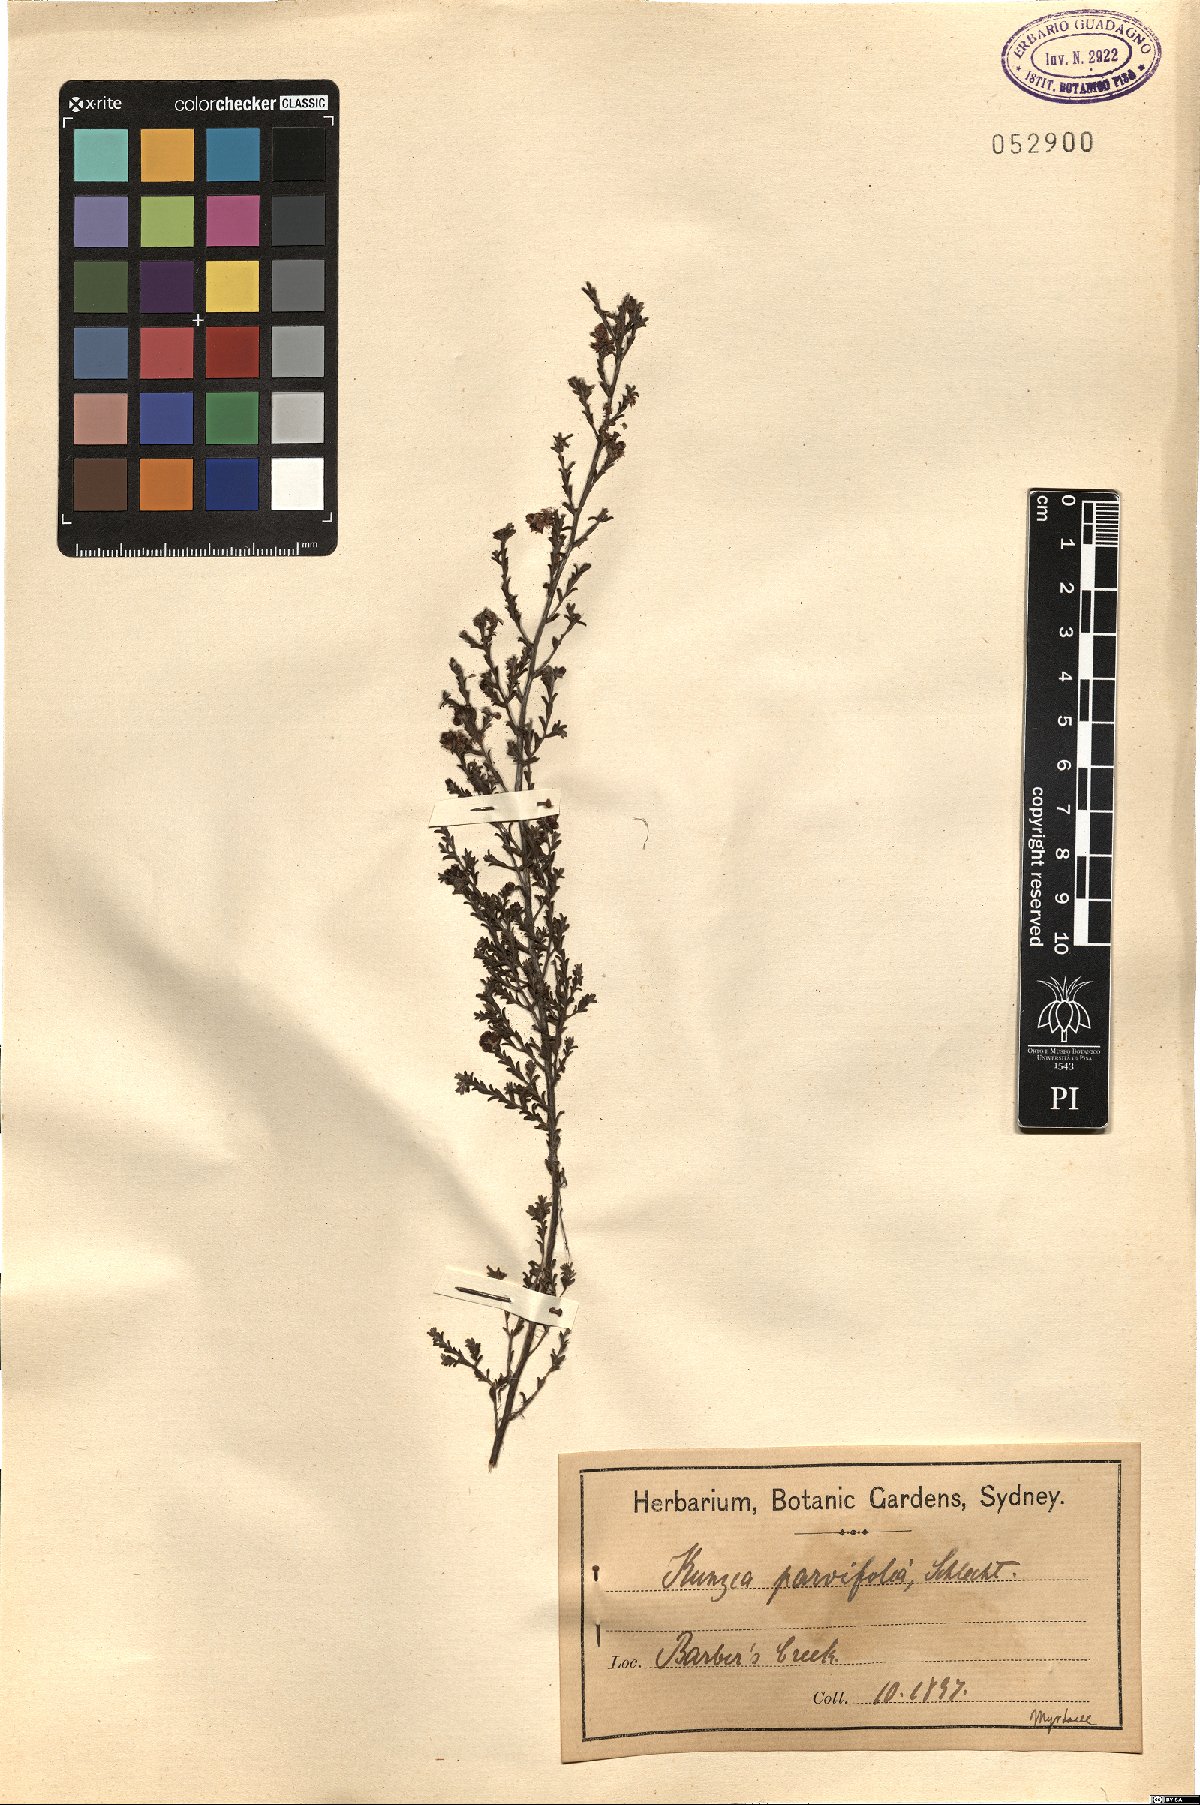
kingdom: Plantae
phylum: Tracheophyta
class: Magnoliopsida
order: Myrtales
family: Myrtaceae
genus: Kunzea
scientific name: Kunzea parvifolia
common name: Violet kunzea
